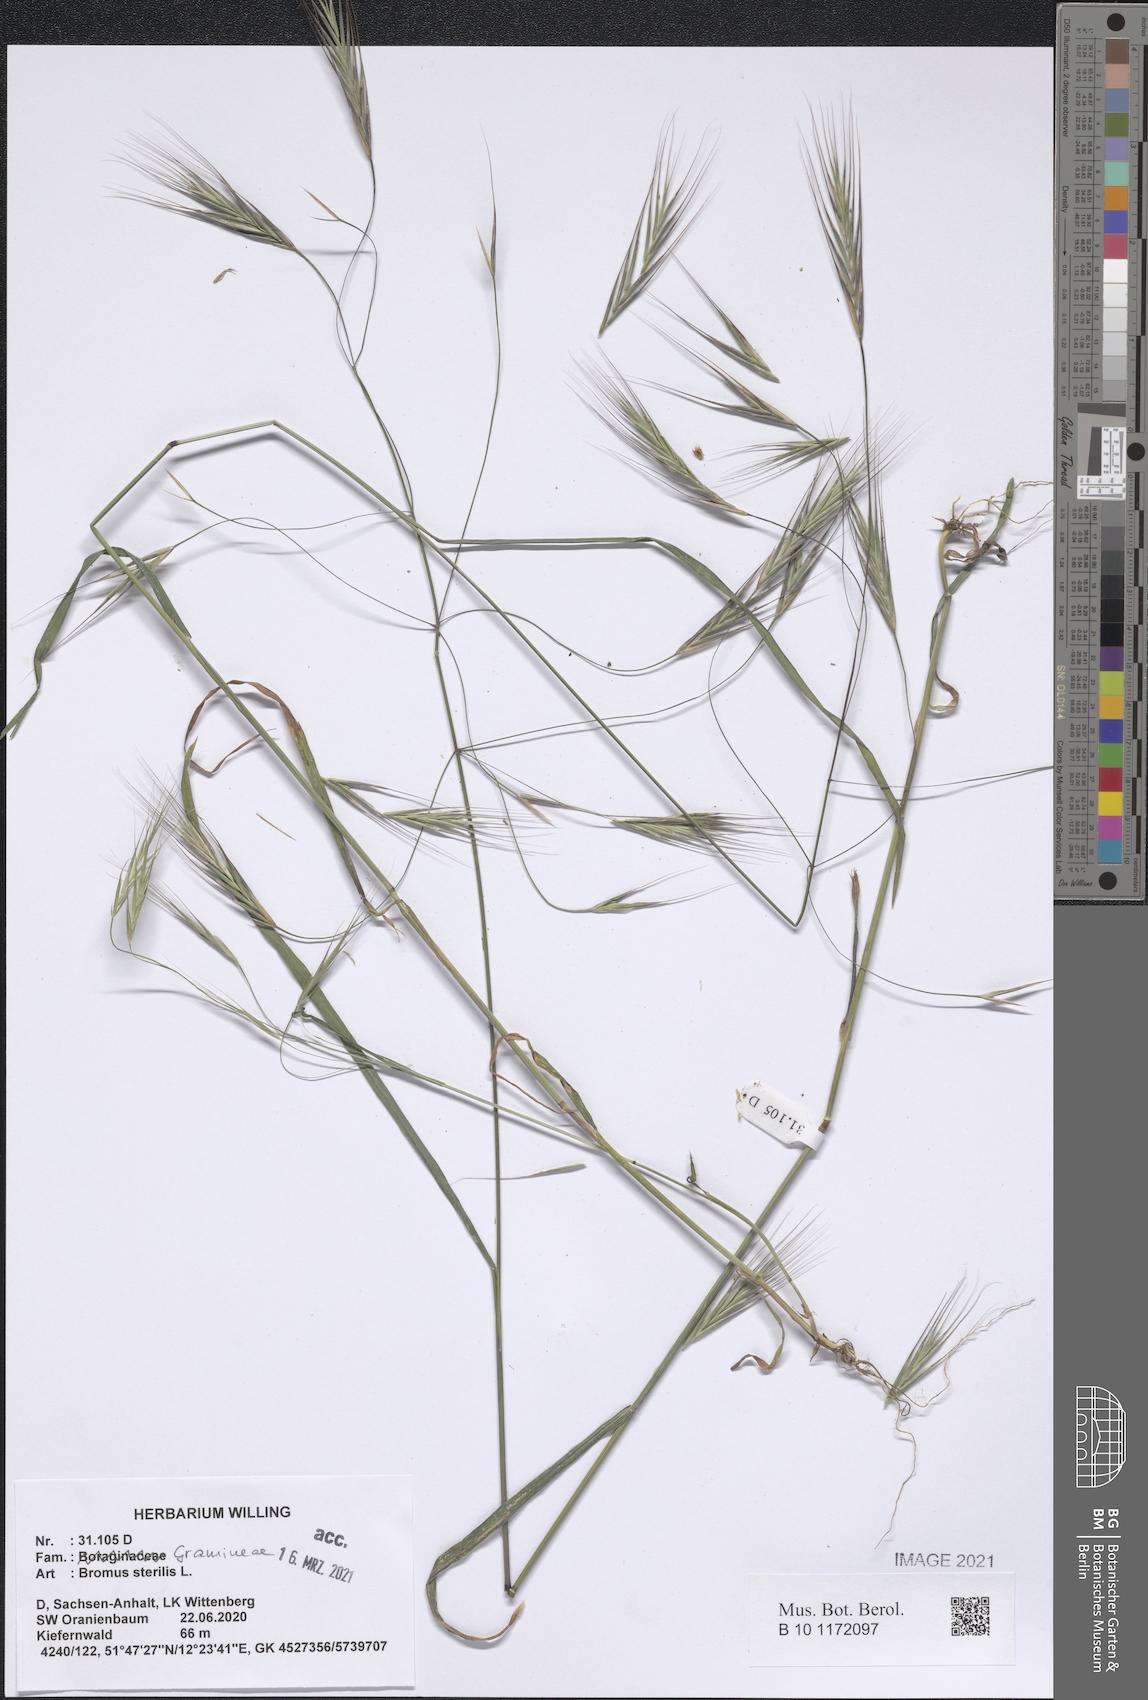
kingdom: Plantae
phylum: Tracheophyta
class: Liliopsida
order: Poales
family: Poaceae
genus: Bromus
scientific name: Bromus sterilis
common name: Poverty brome
